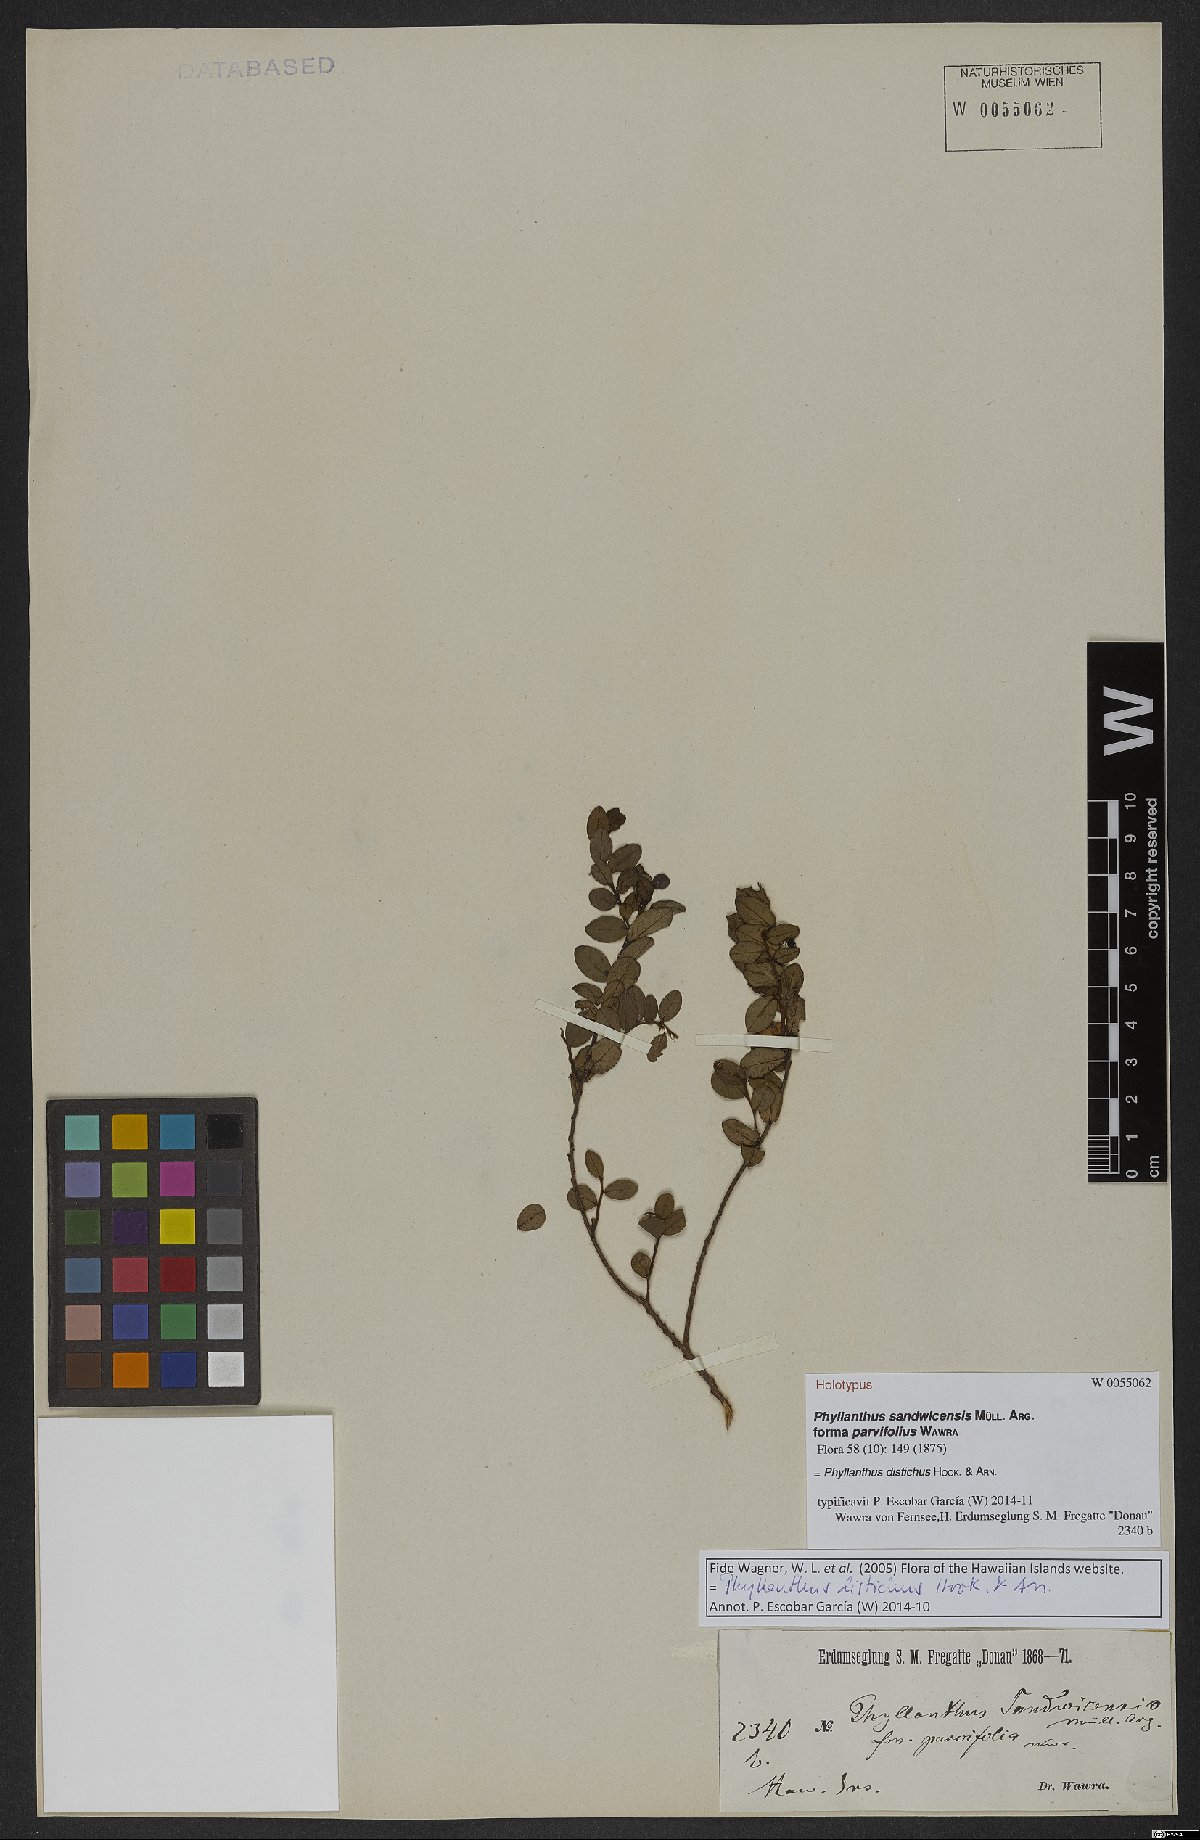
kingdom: Plantae
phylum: Tracheophyta
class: Magnoliopsida
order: Malpighiales
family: Phyllanthaceae
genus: Phyllanthus
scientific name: Phyllanthus distichus
